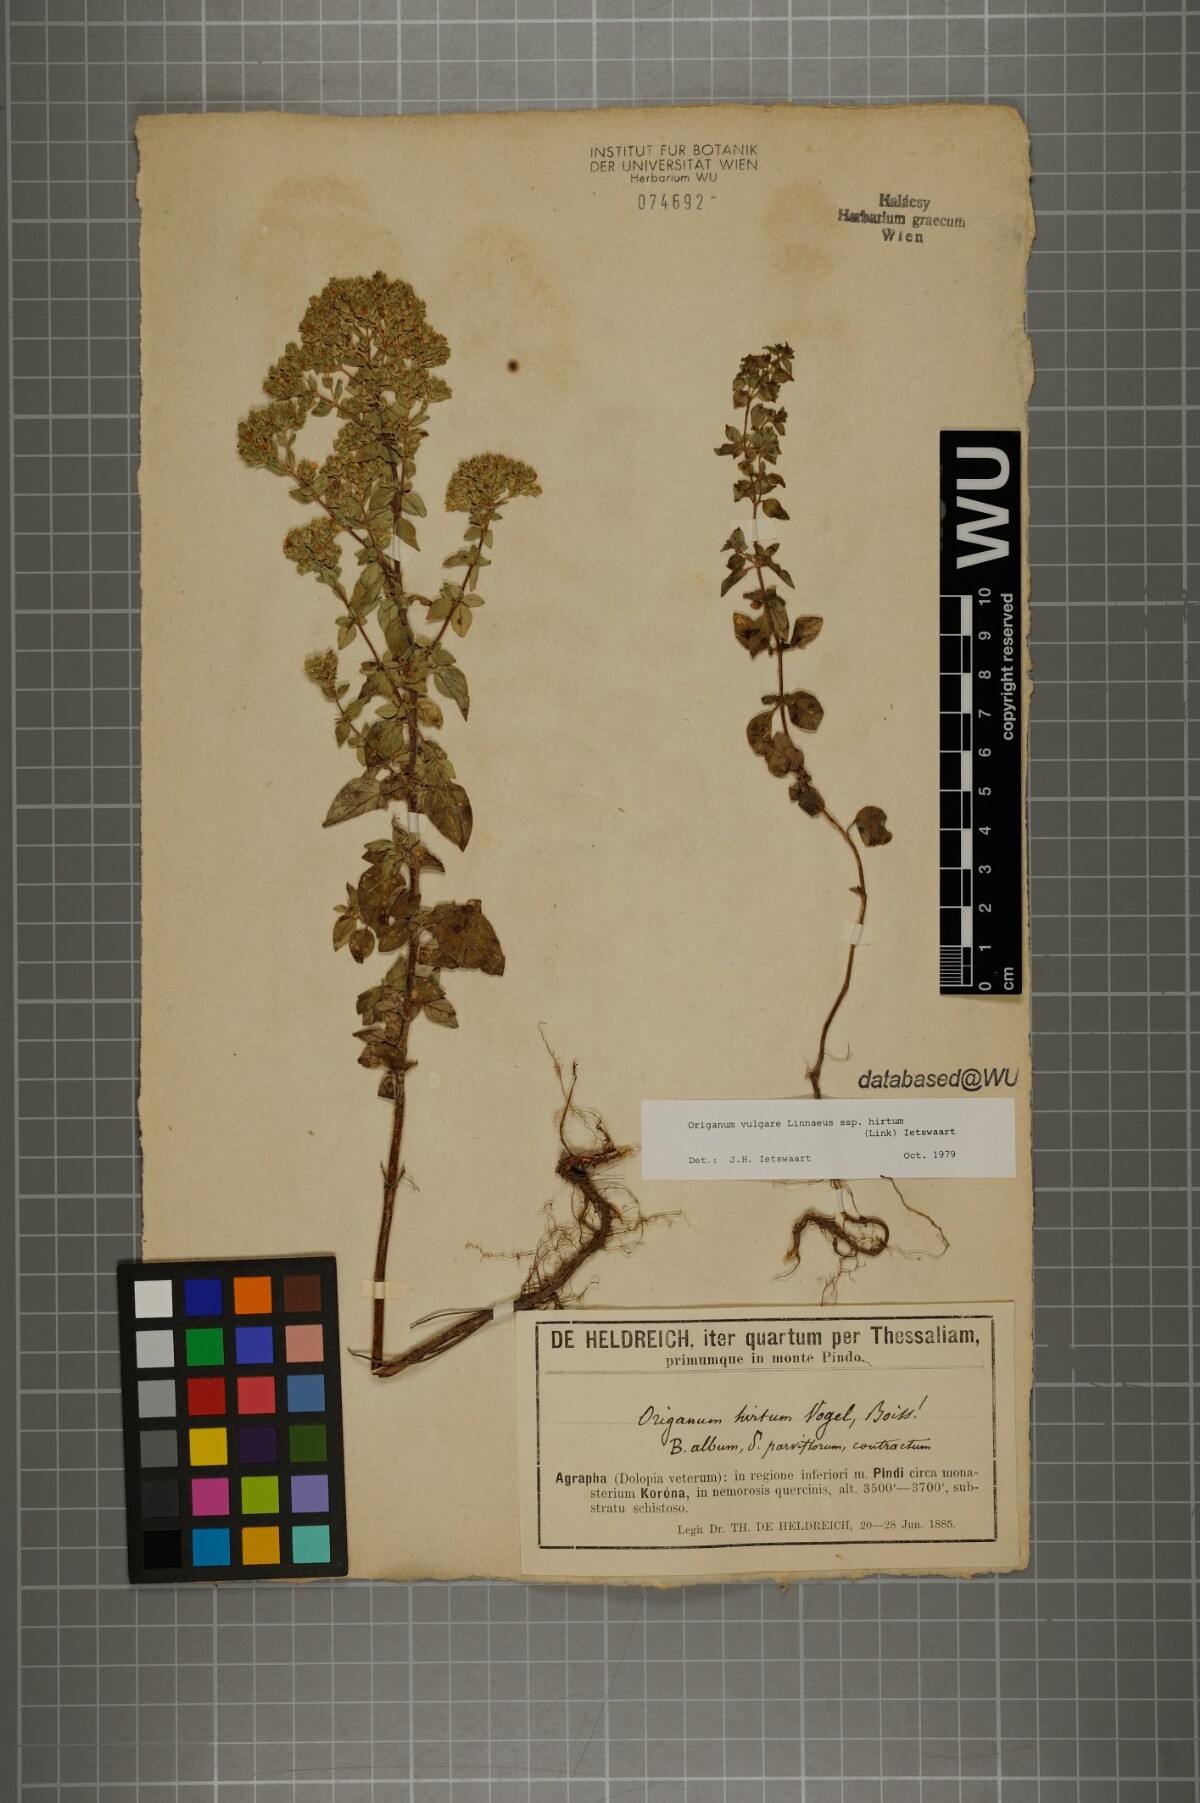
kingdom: Plantae
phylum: Tracheophyta
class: Magnoliopsida
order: Lamiales
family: Lamiaceae
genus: Origanum
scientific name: Origanum vulgare
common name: Wild marjoram
